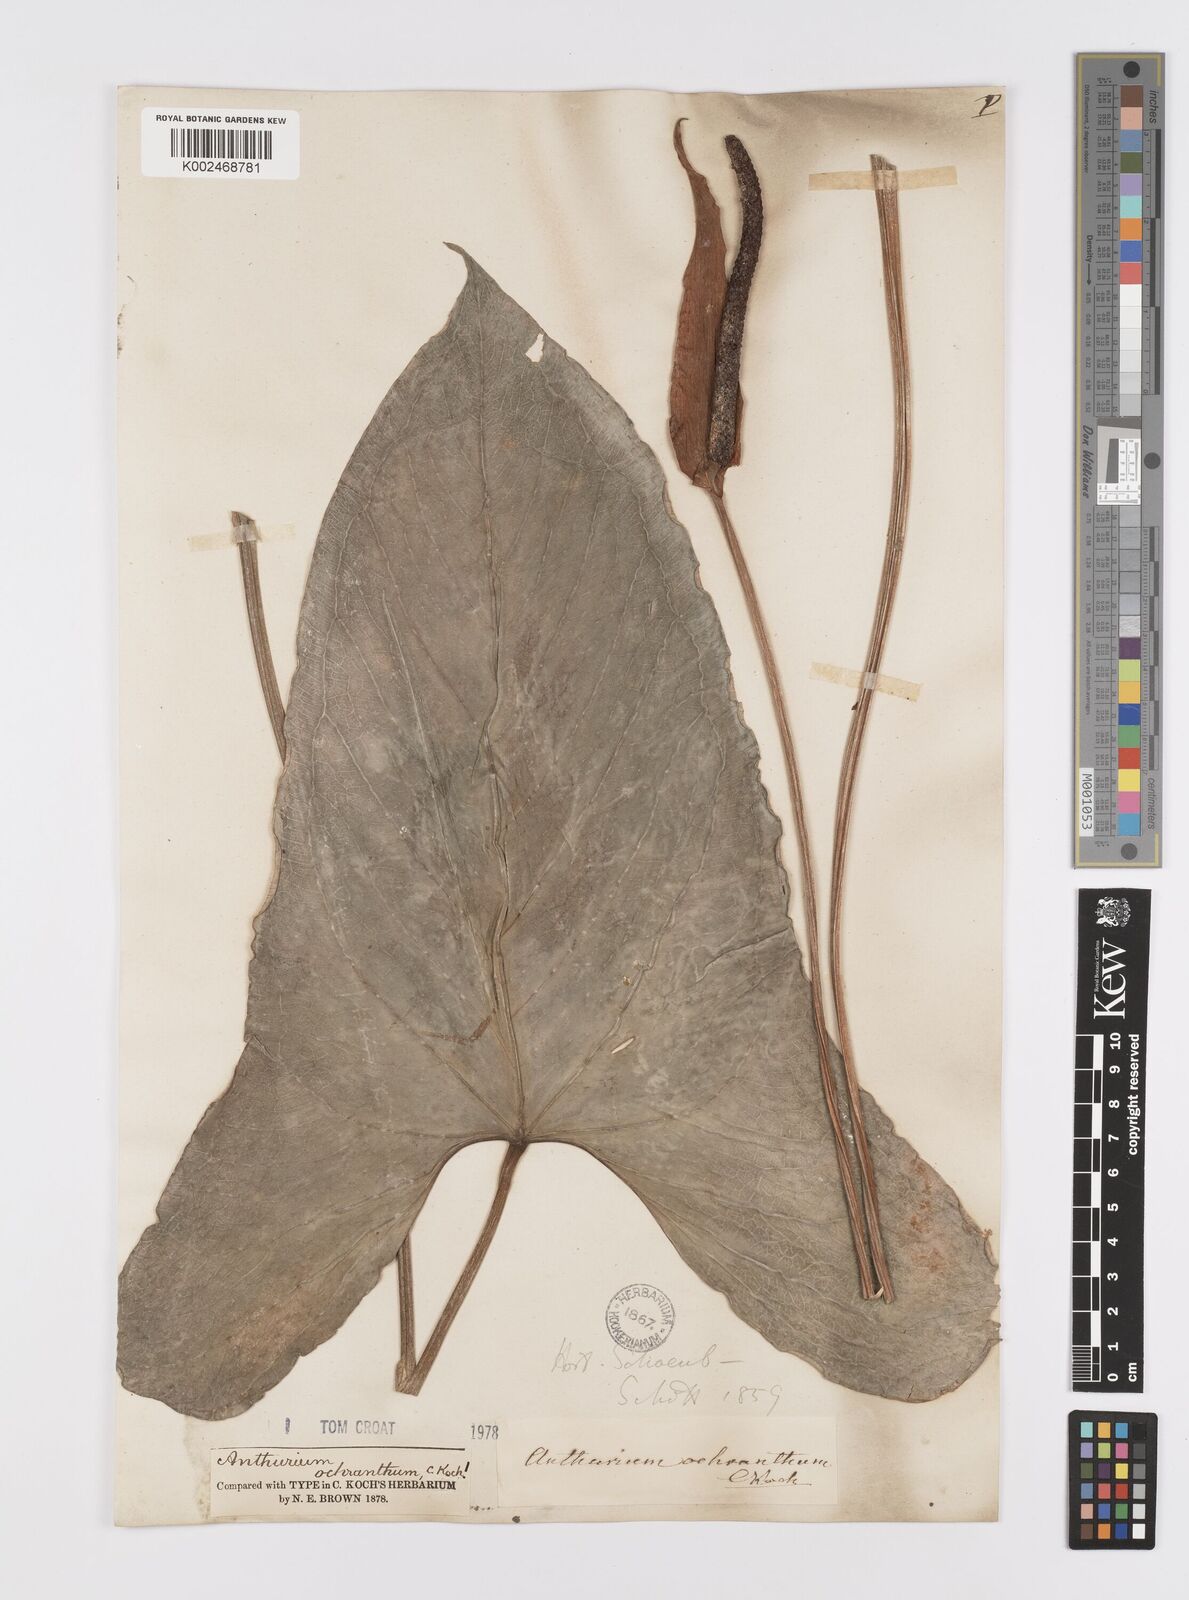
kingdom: Plantae
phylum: Tracheophyta
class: Liliopsida
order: Alismatales
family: Araceae
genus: Anthurium
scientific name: Anthurium ochranthum
